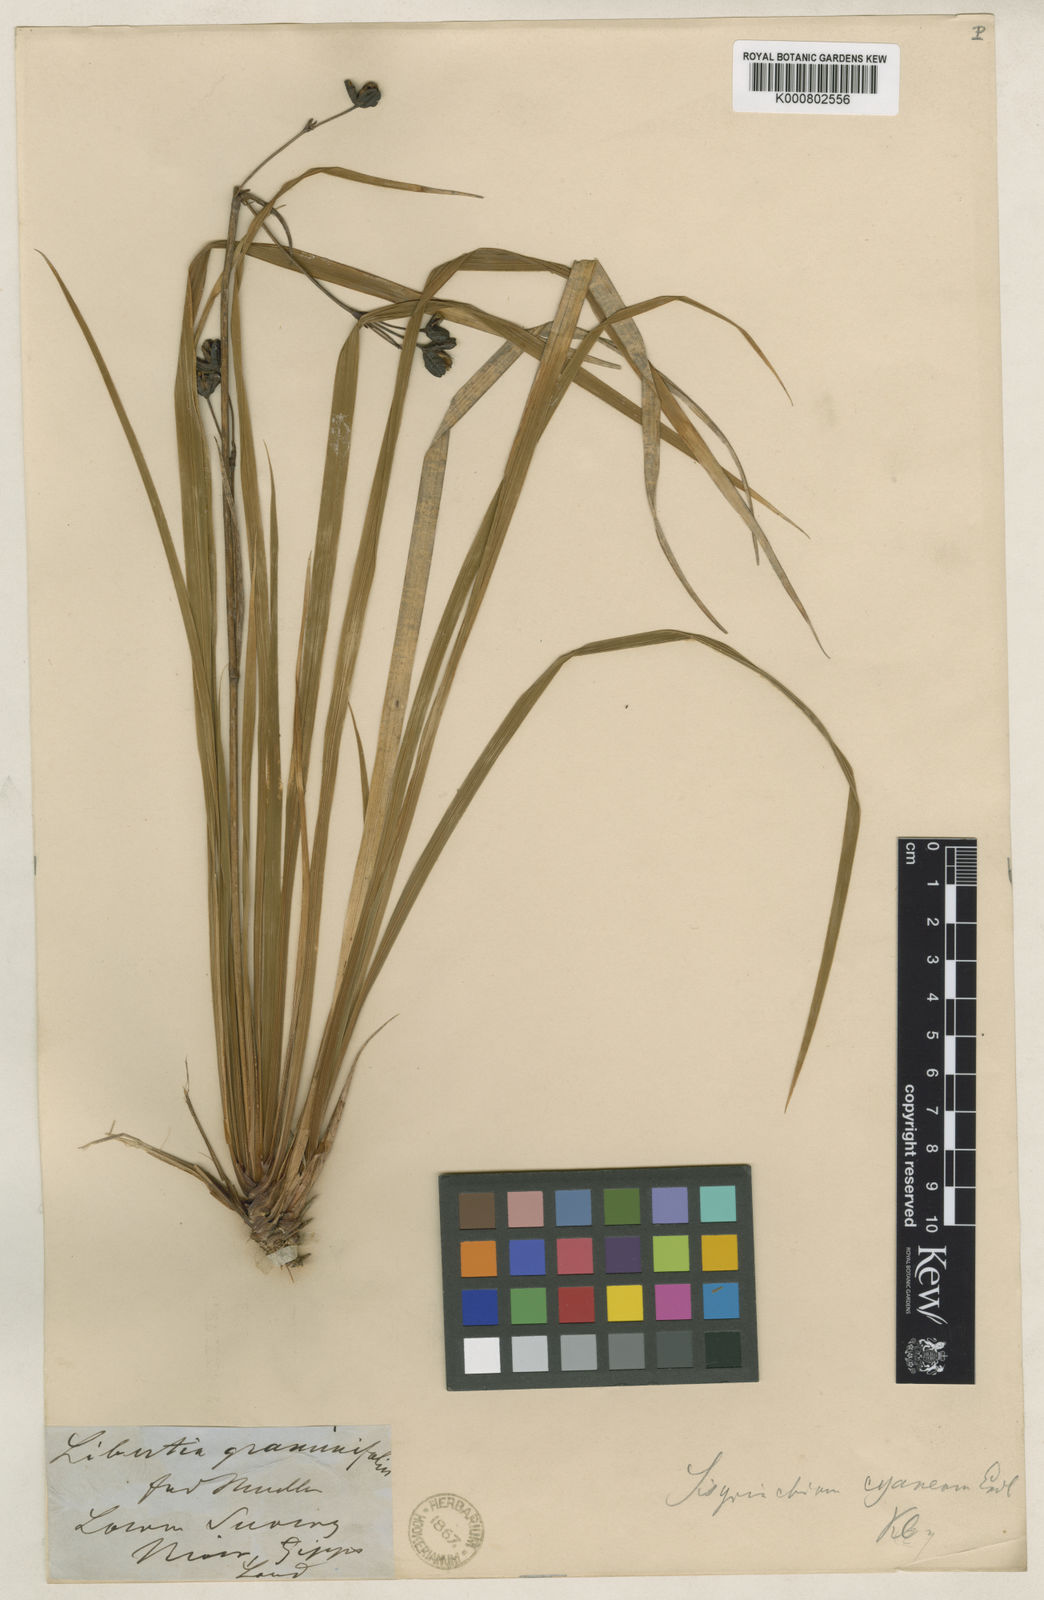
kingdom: Plantae
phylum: Tracheophyta
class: Liliopsida
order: Asparagales
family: Iridaceae
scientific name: Iridaceae
